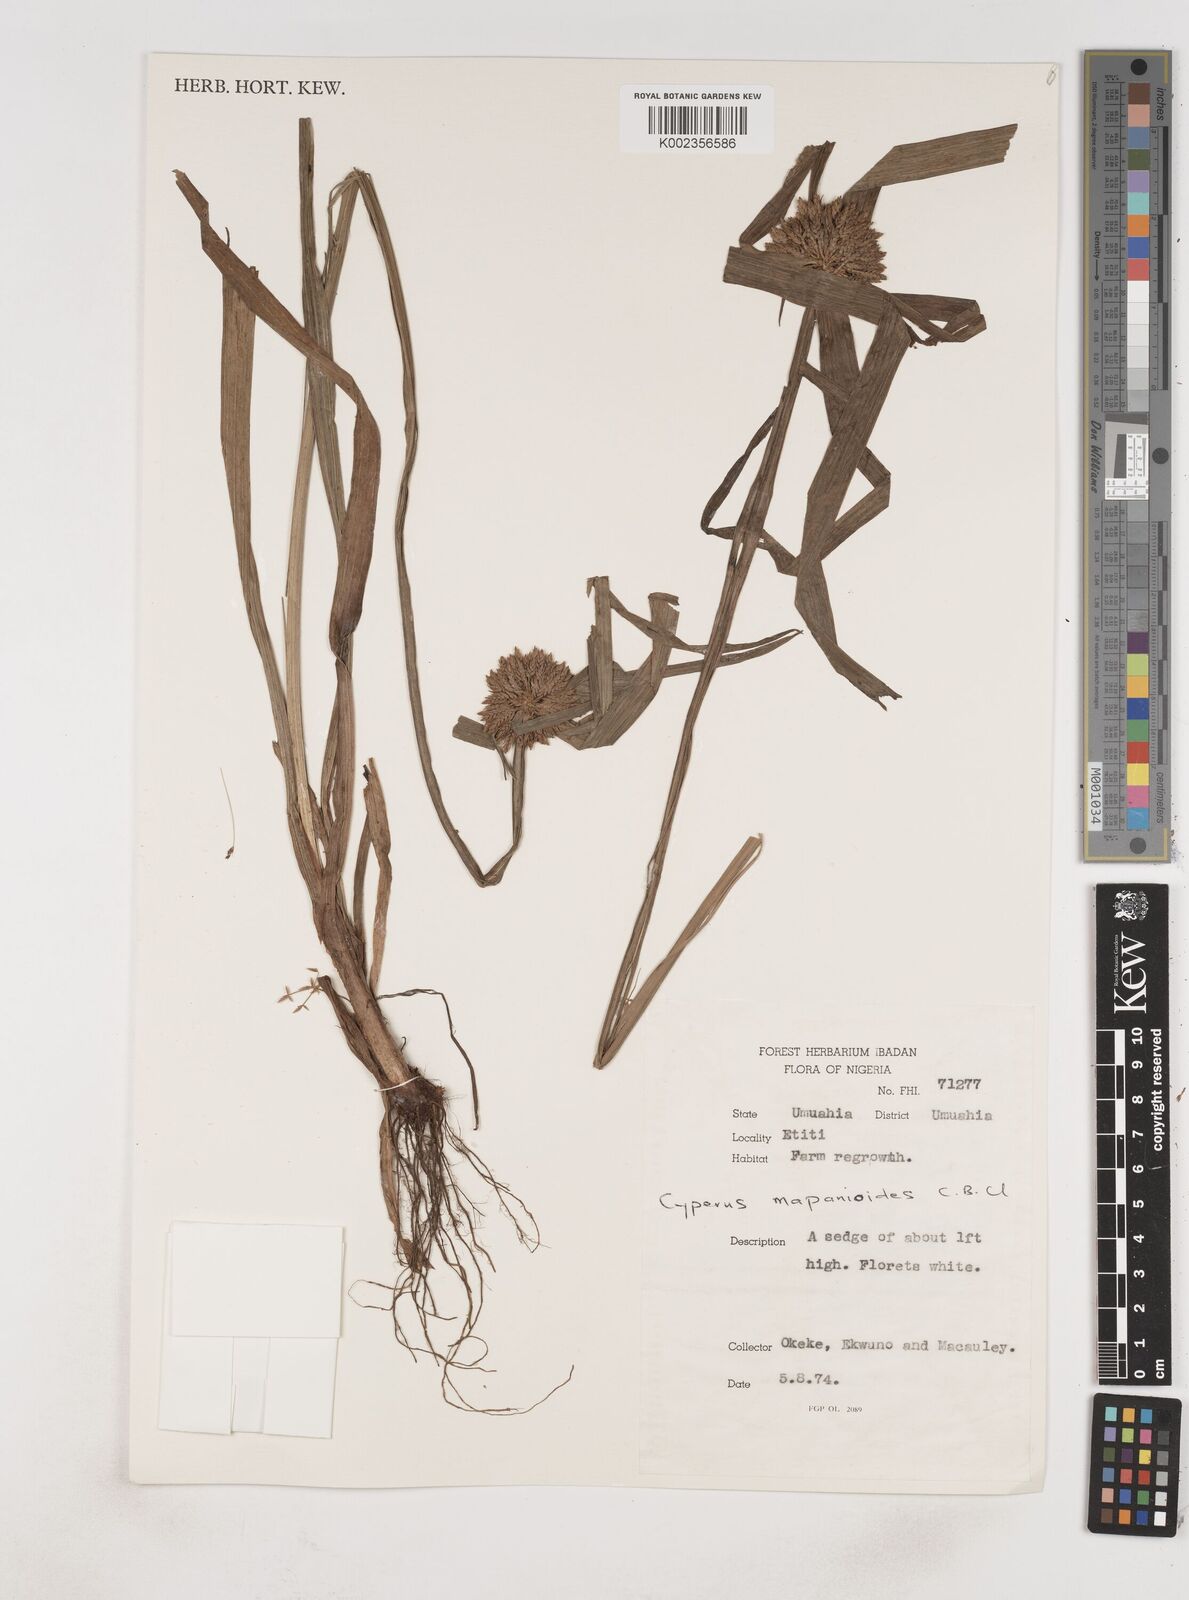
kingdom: Plantae
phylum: Tracheophyta
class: Liliopsida
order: Poales
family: Cyperaceae
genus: Cyperus
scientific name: Cyperus mapanioides
